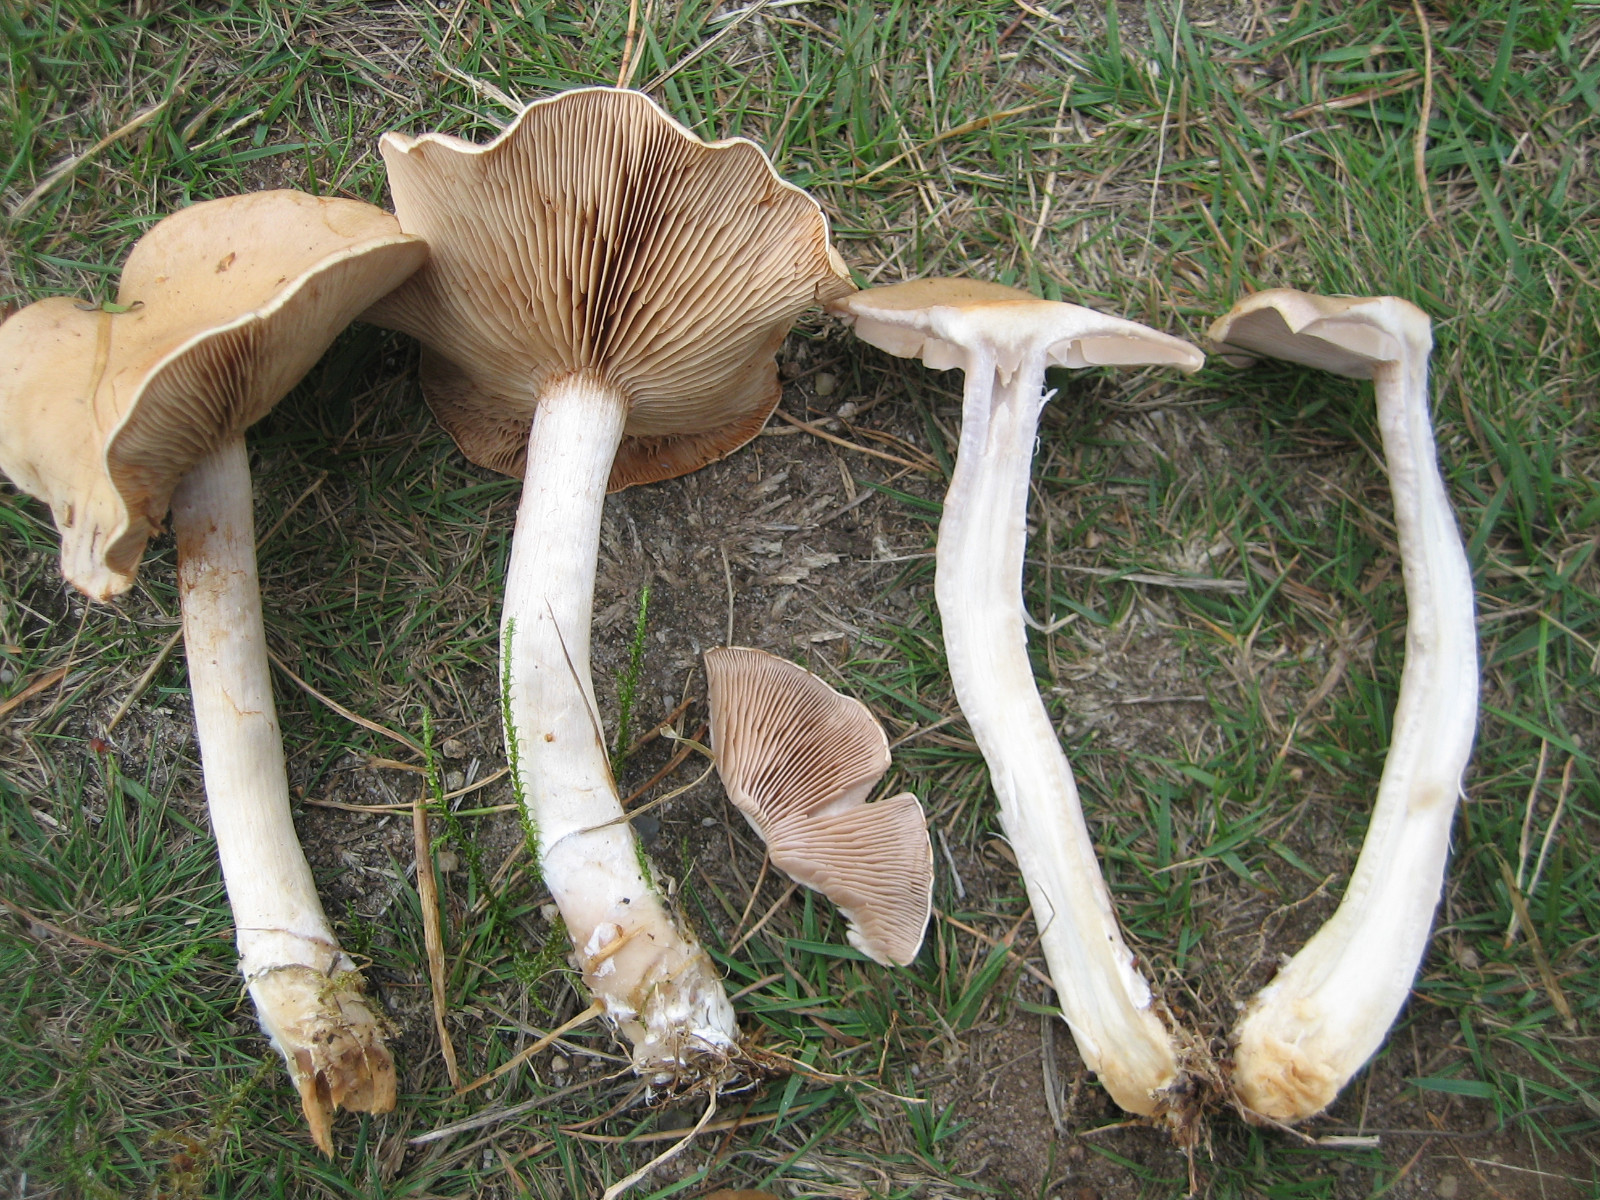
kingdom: Fungi
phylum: Basidiomycota
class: Agaricomycetes
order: Agaricales
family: Cortinariaceae
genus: Cortinarius
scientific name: Cortinarius tabularis
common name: lerbrun slørhat
